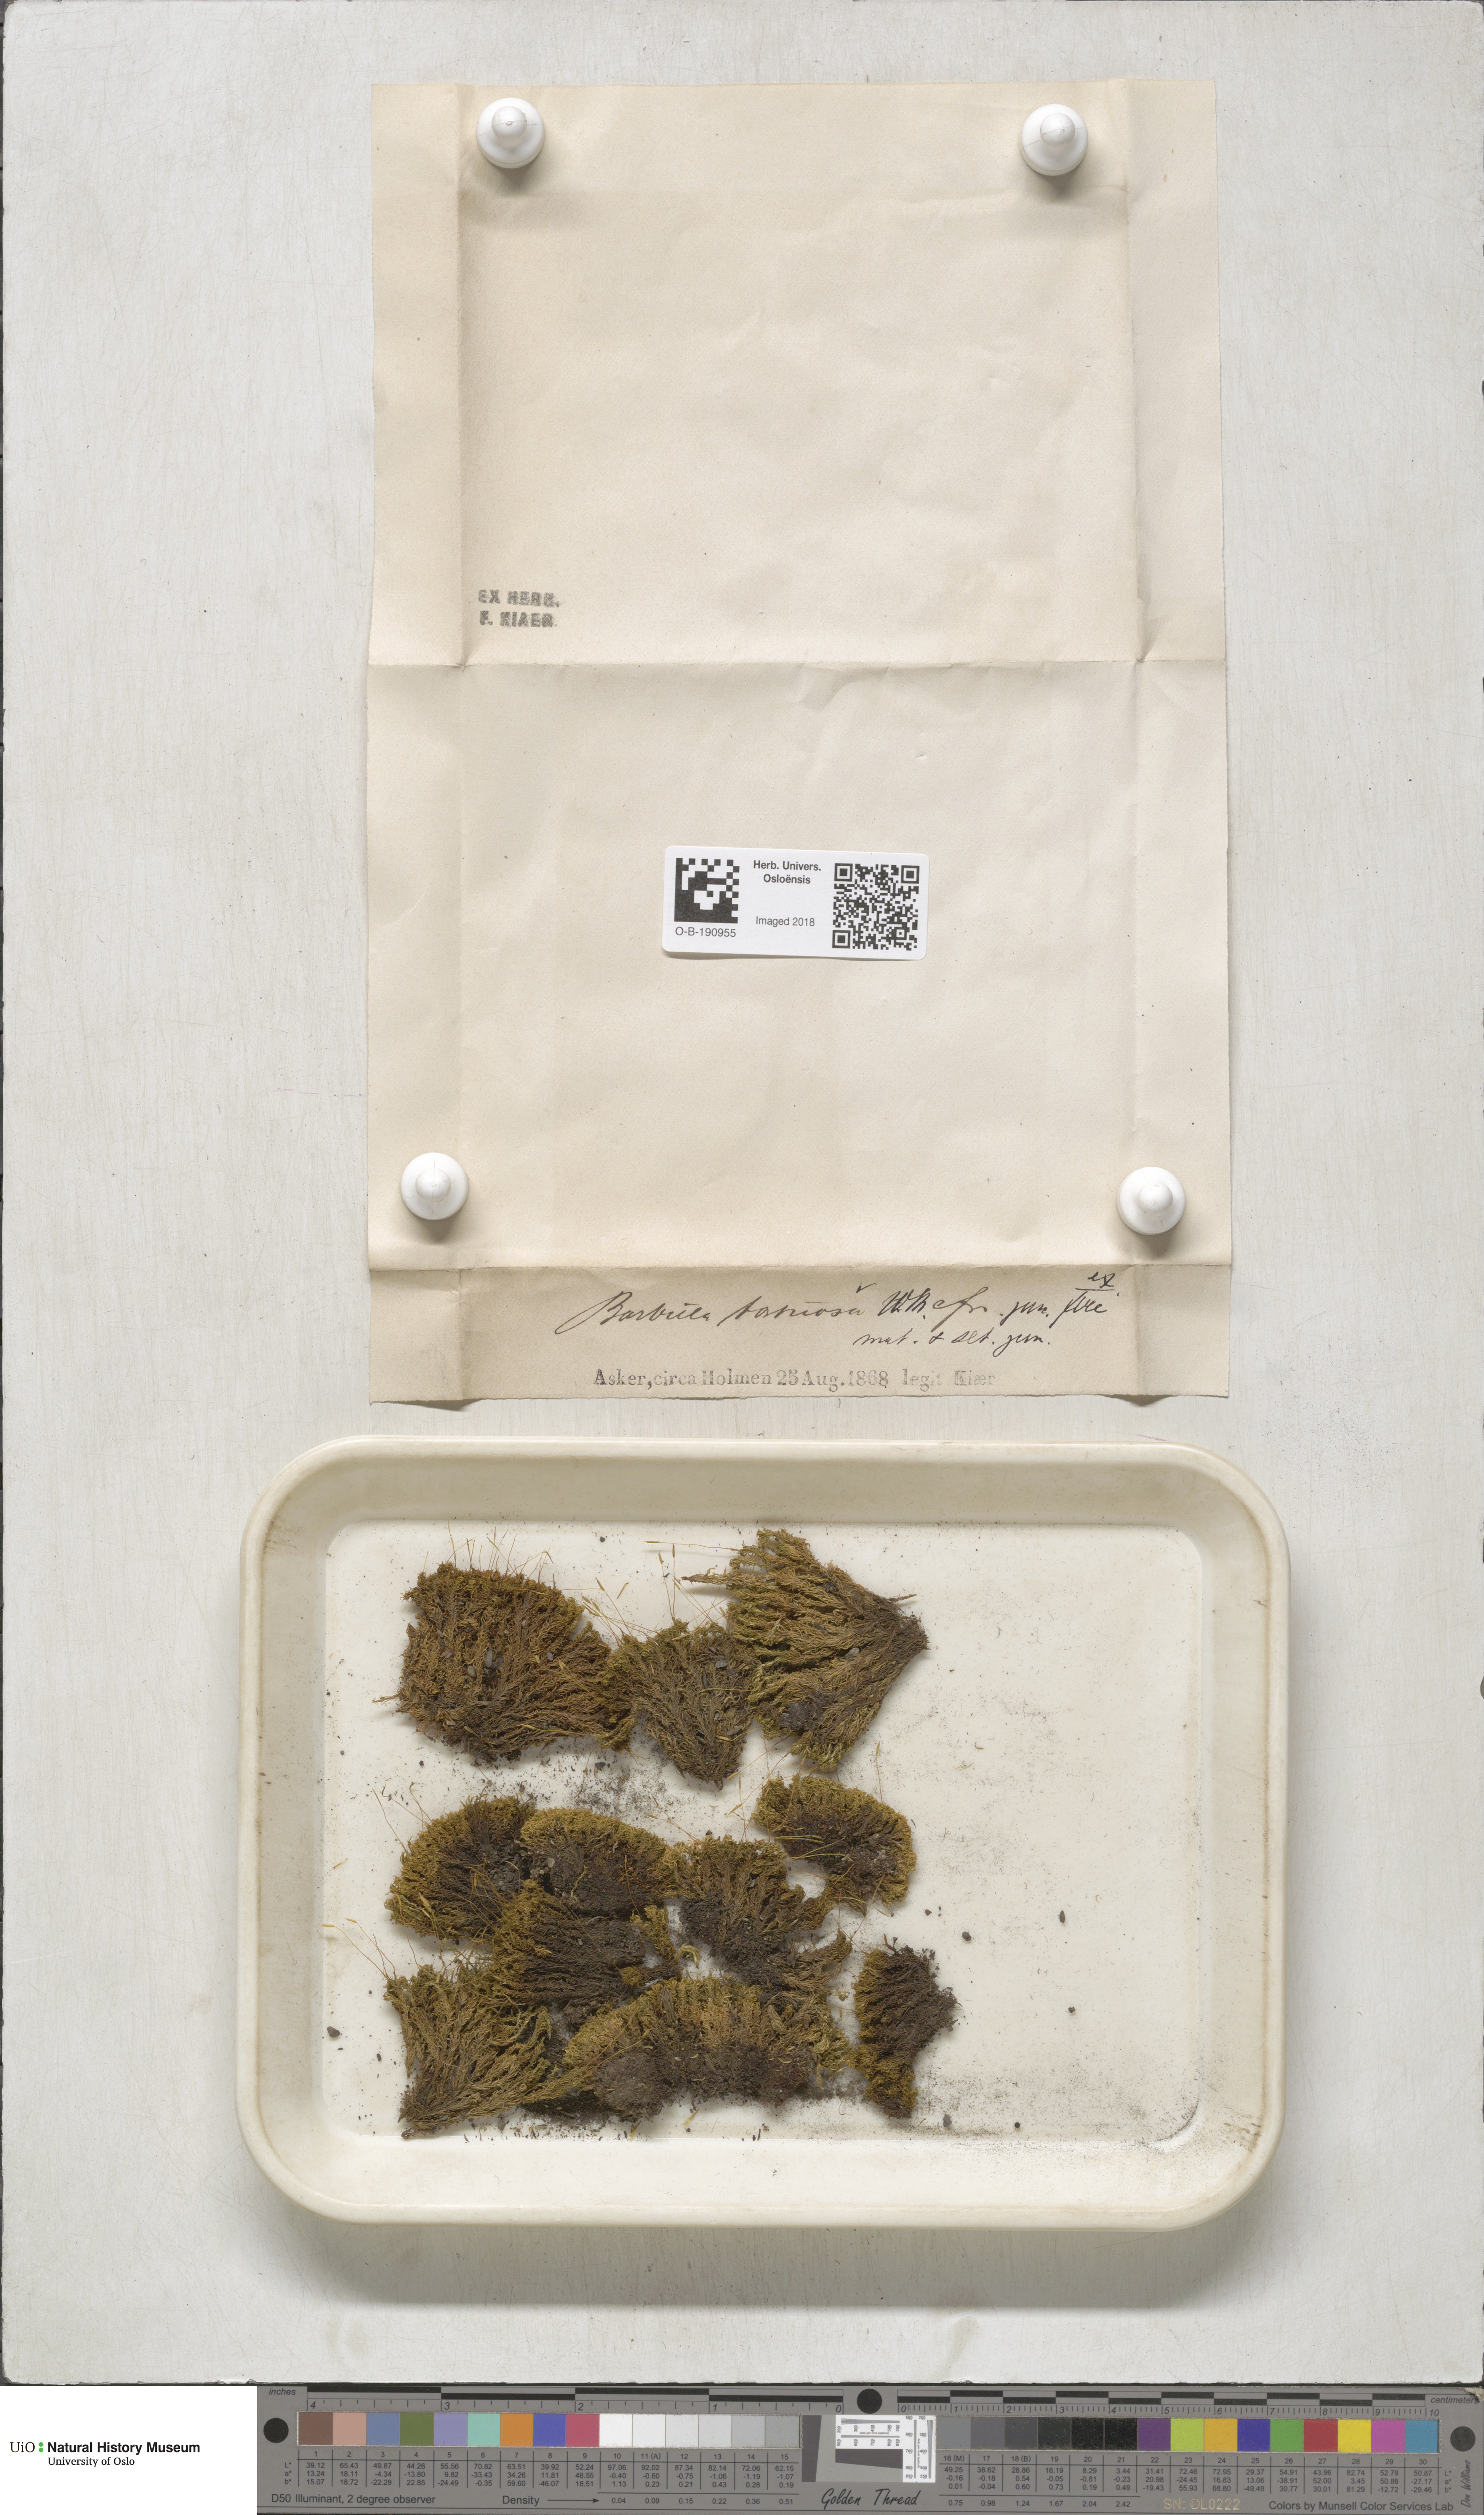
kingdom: Plantae
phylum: Bryophyta
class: Bryopsida
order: Pottiales
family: Pottiaceae
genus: Tortella
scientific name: Tortella tortuosa
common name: Frizzled crisp moss
